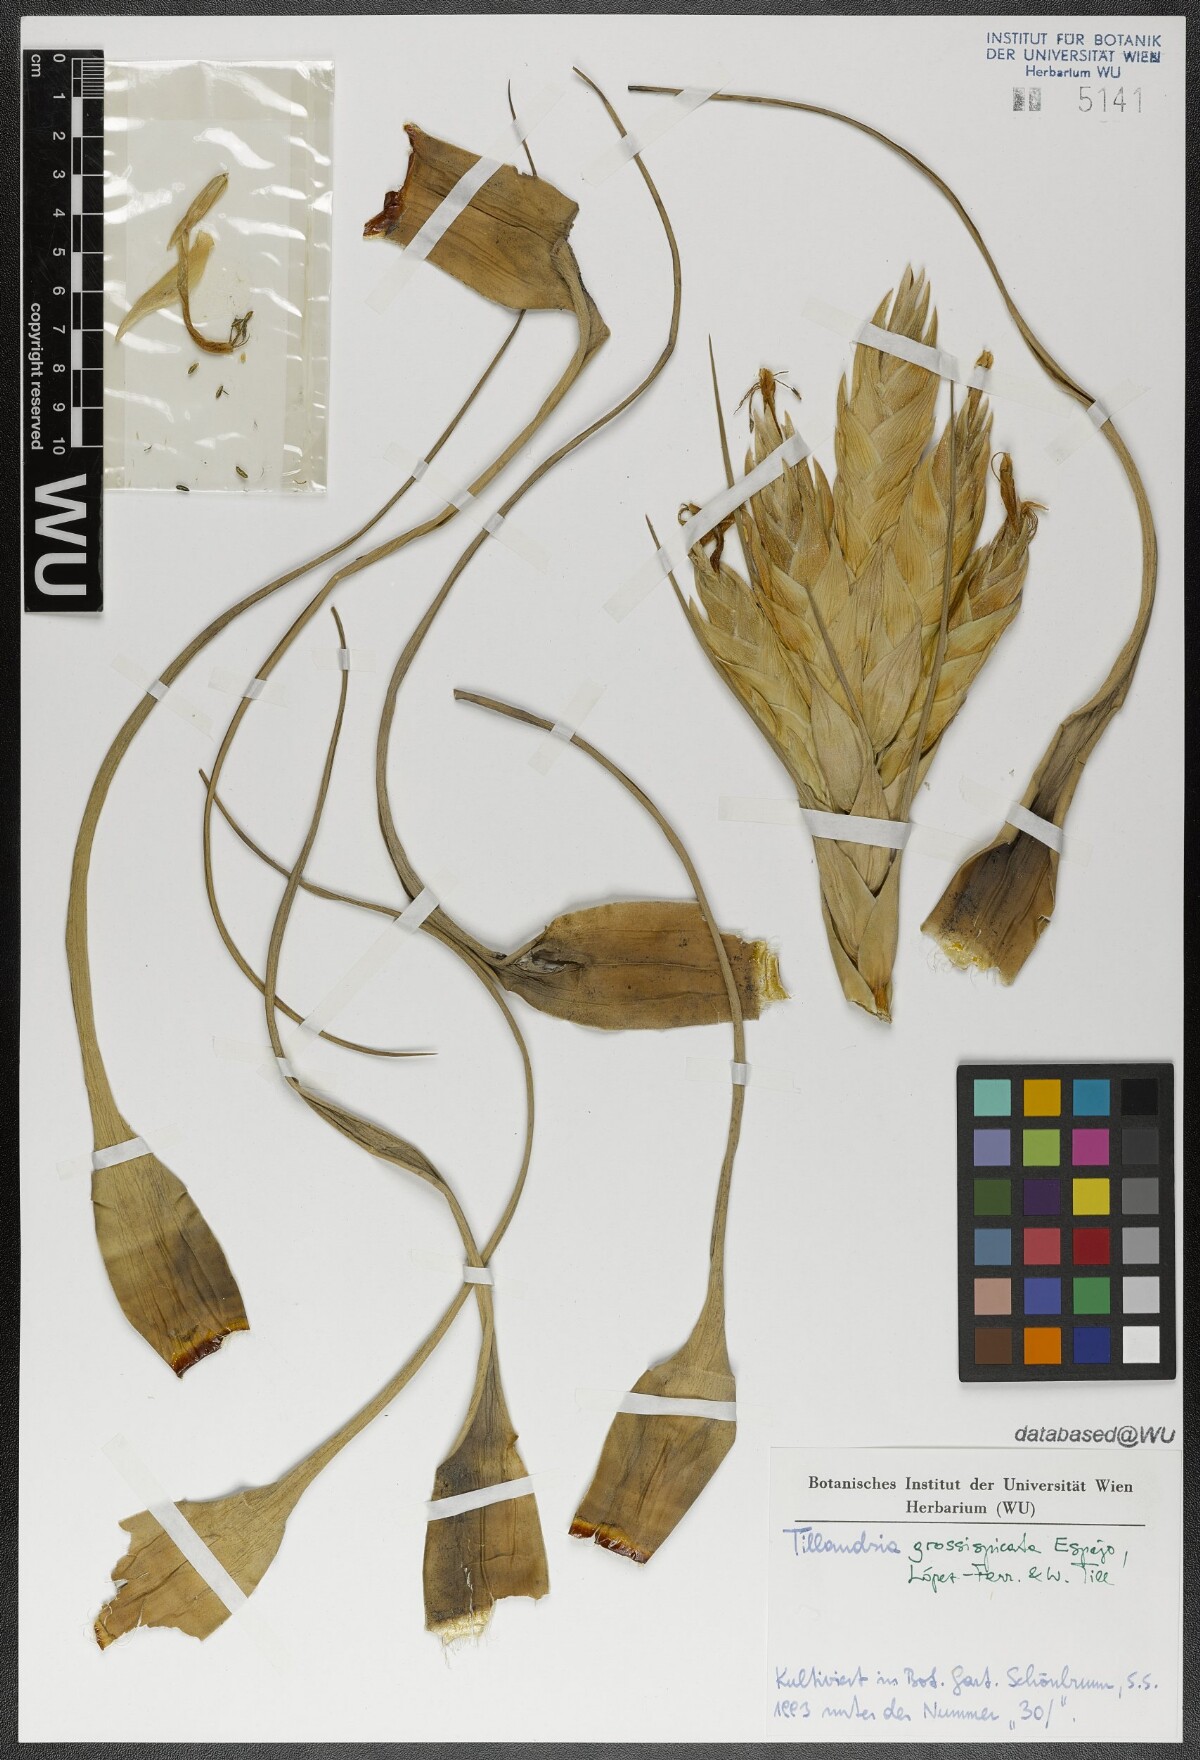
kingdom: Plantae
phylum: Tracheophyta
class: Liliopsida
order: Poales
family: Bromeliaceae
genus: Tillandsia
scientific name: Tillandsia grossispicata
